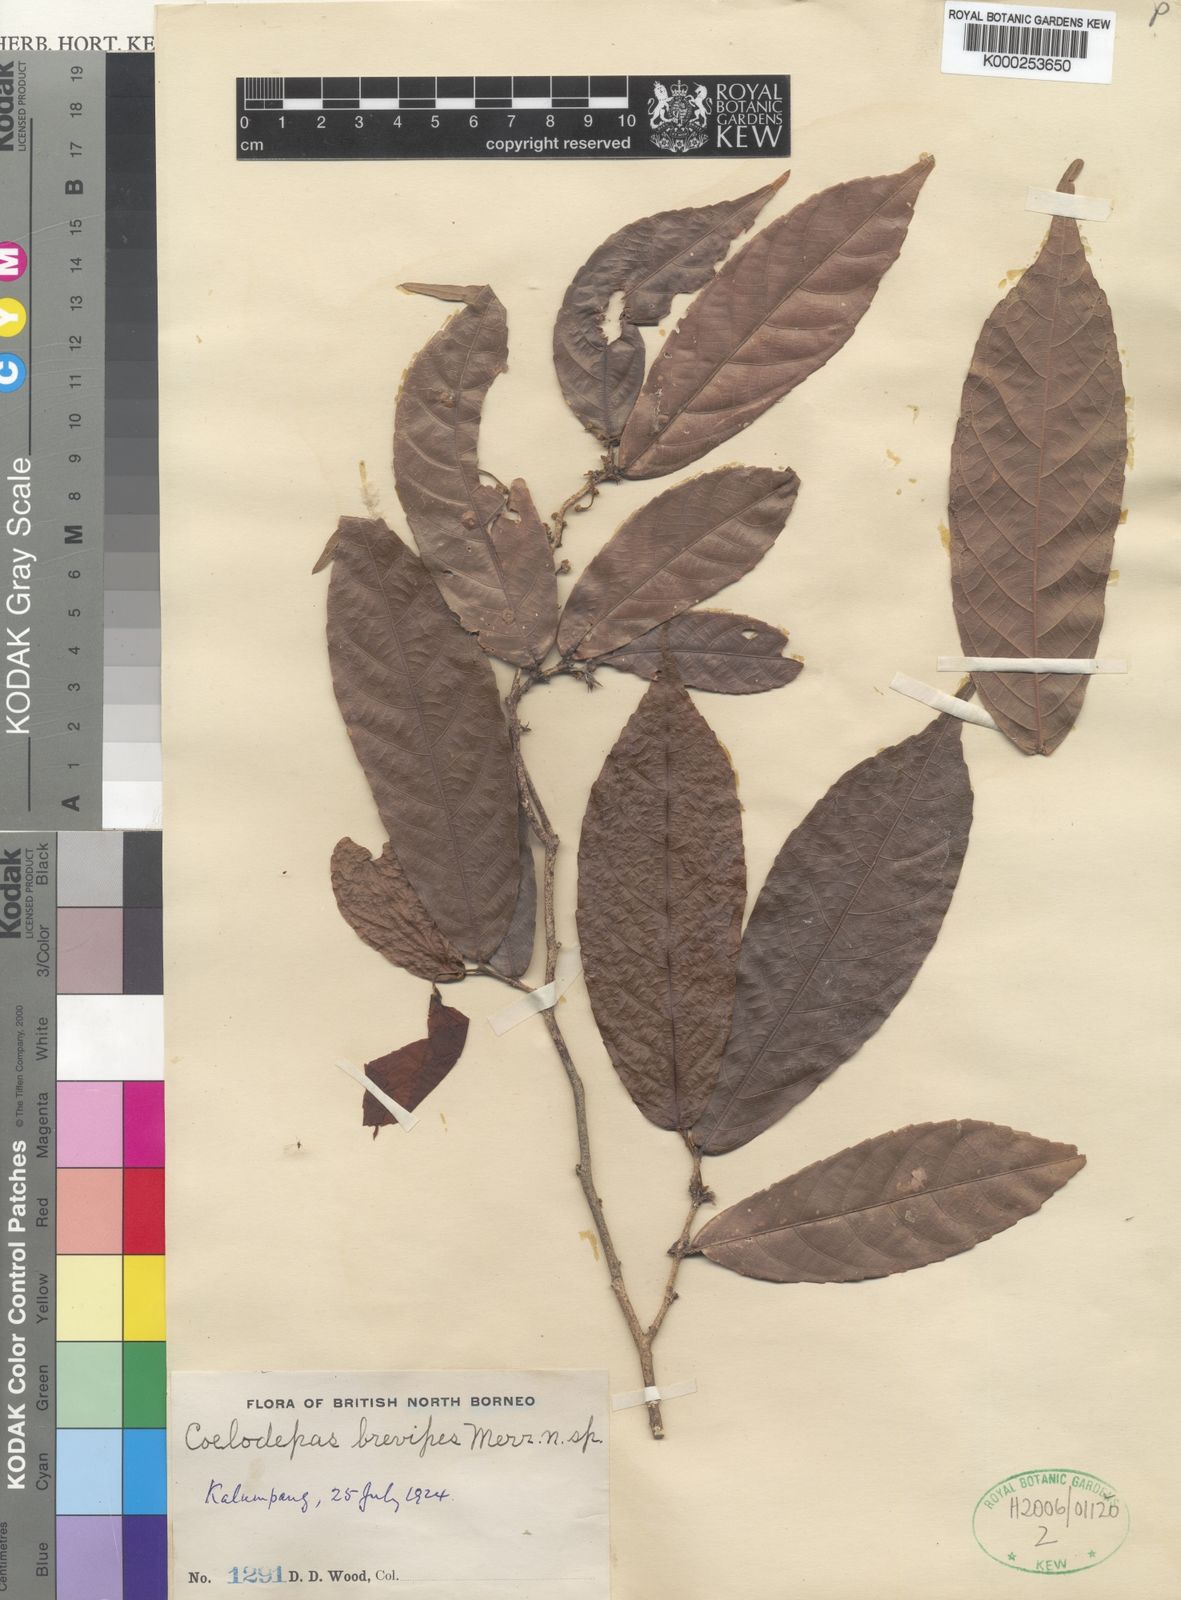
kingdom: Plantae
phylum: Tracheophyta
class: Magnoliopsida
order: Malpighiales
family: Euphorbiaceae
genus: Koilodepas
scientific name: Koilodepas brevipes
